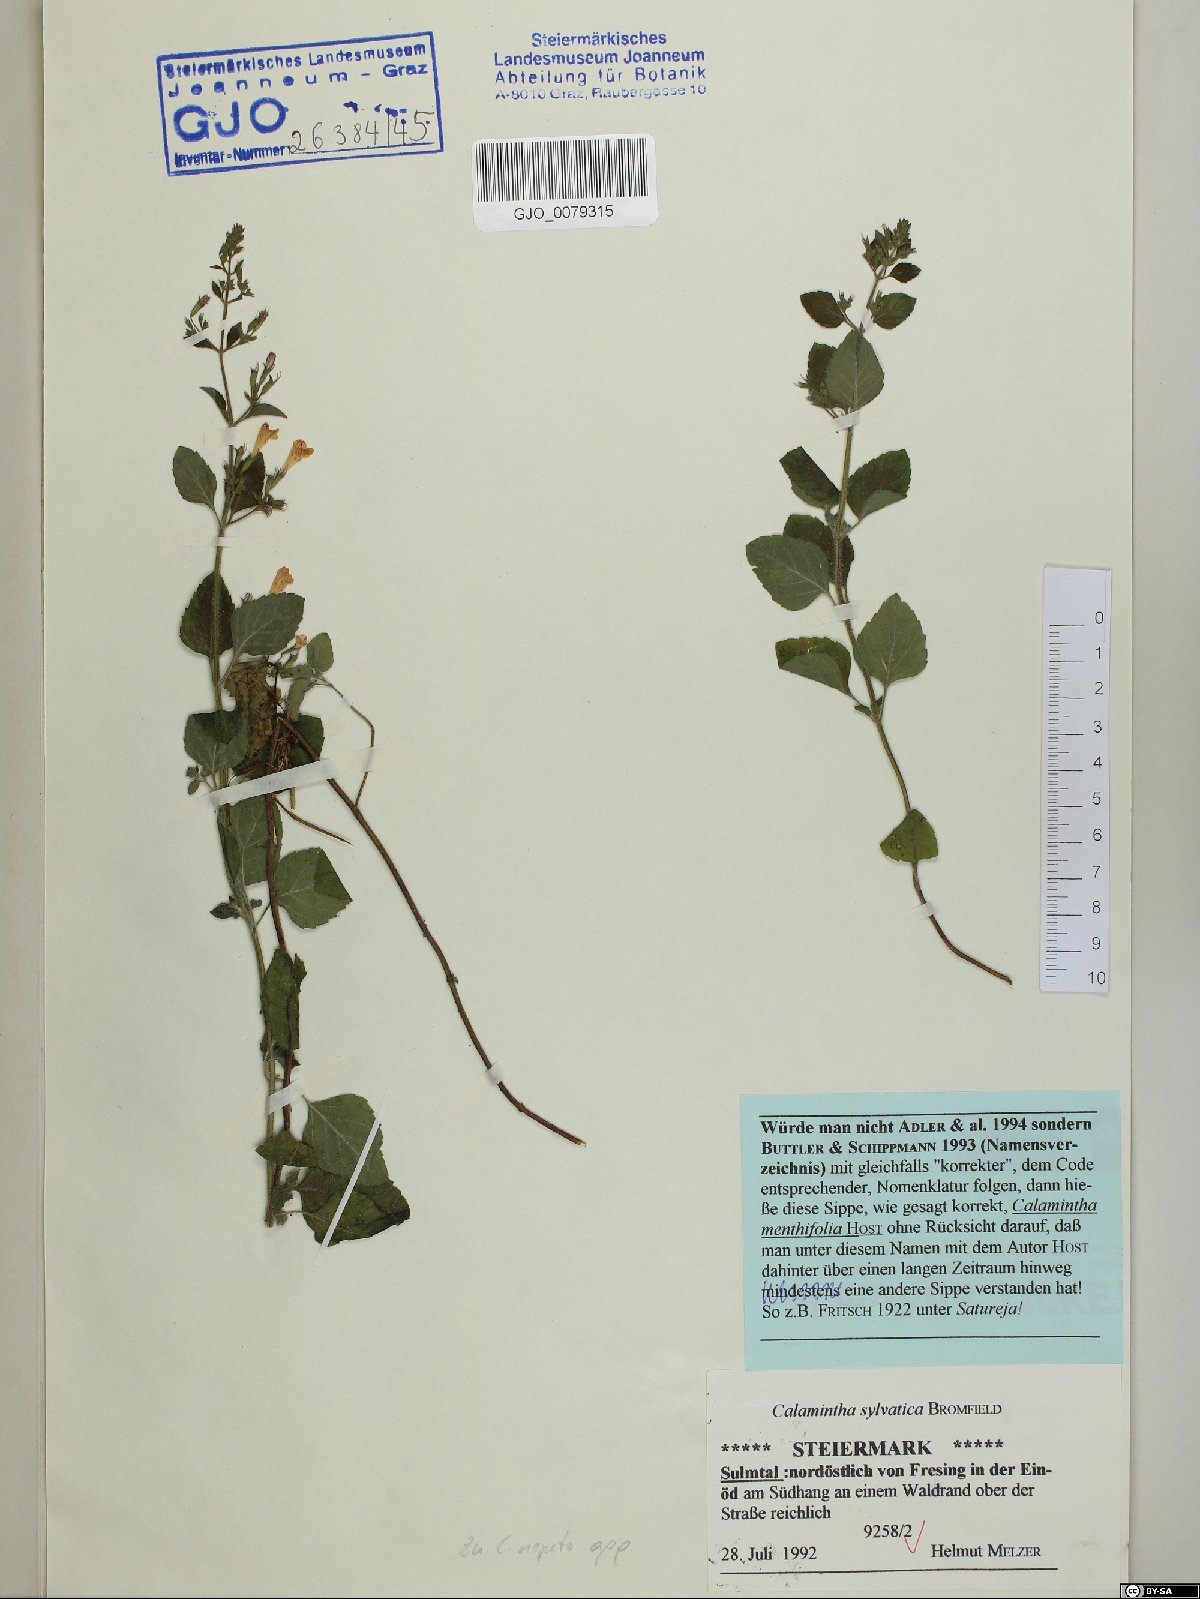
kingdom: Plantae
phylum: Tracheophyta
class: Magnoliopsida
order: Lamiales
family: Lamiaceae
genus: Clinopodium
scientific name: Clinopodium menthifolium
